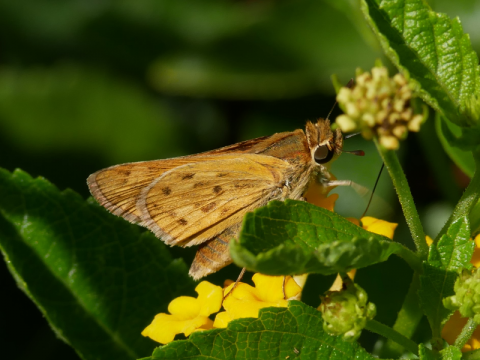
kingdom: Animalia
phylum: Arthropoda
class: Insecta
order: Lepidoptera
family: Hesperiidae
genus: Hylephila
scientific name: Hylephila phyleus
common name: Fiery Skipper
